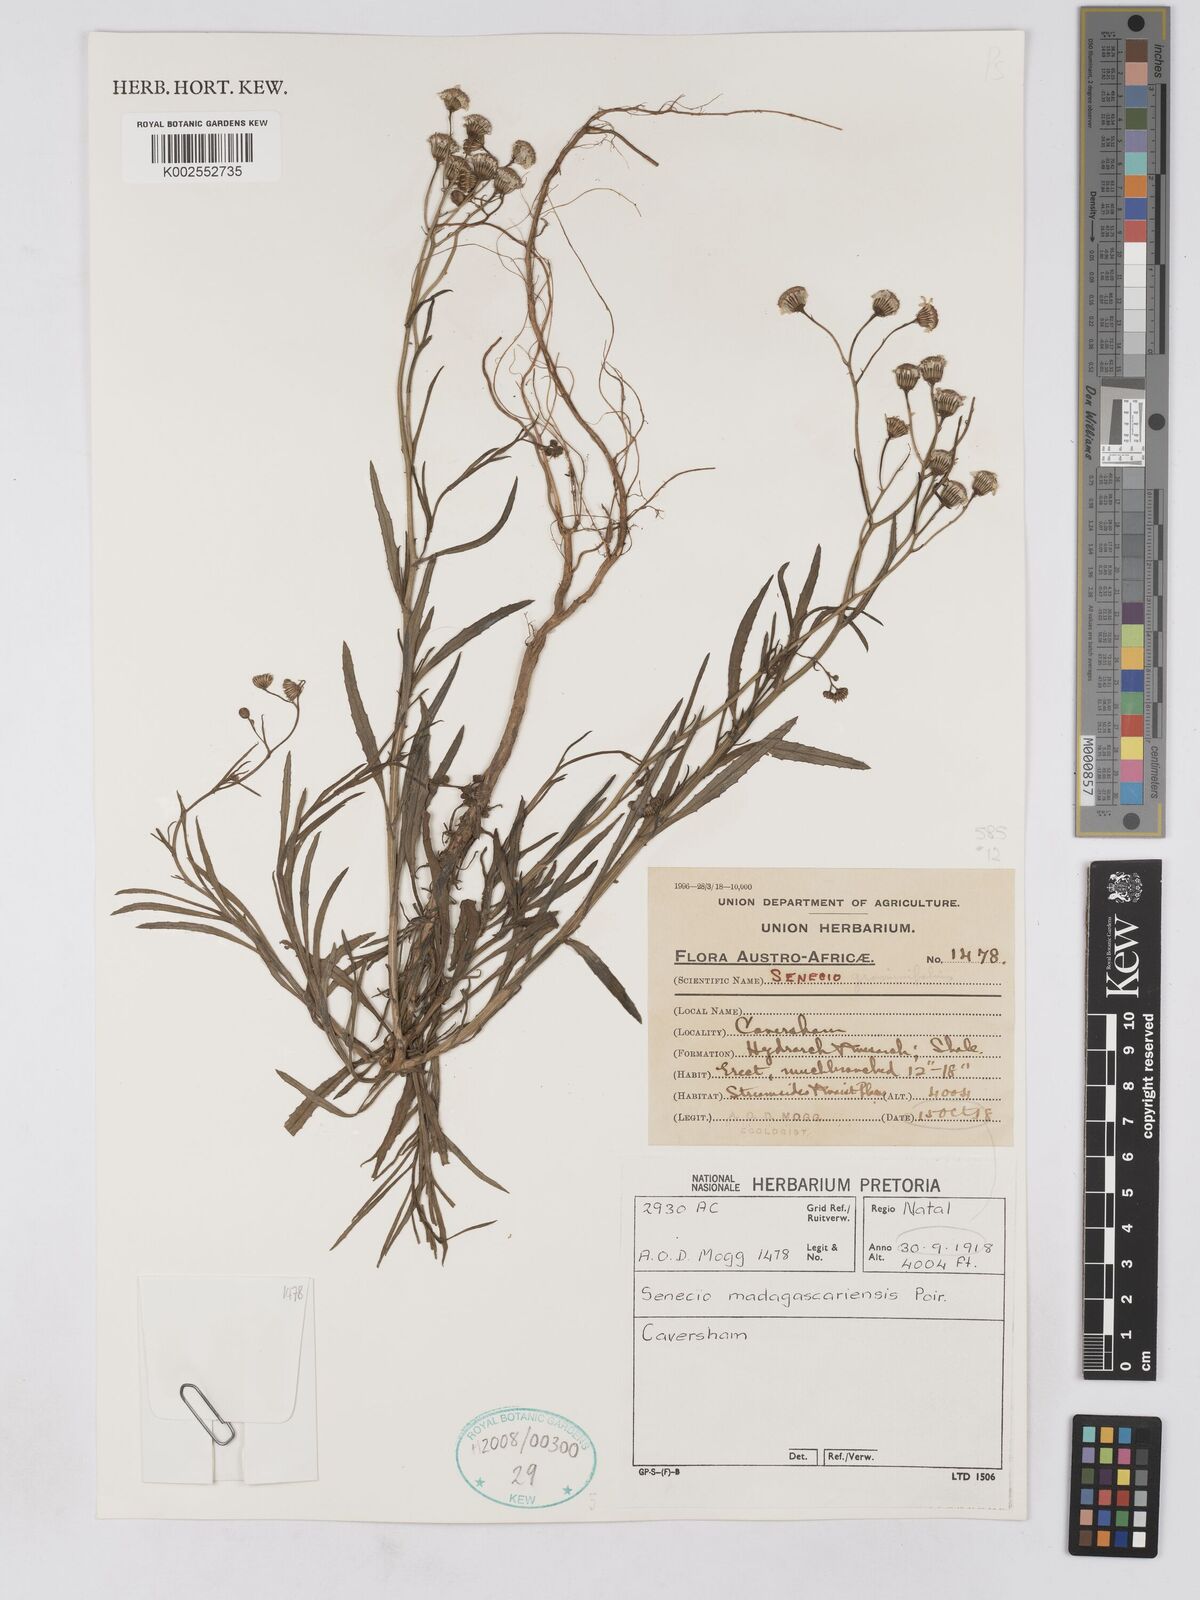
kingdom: Plantae
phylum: Tracheophyta
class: Magnoliopsida
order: Asterales
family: Asteraceae
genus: Senecio
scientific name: Senecio madagascariensis
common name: Madagascar ragwort
